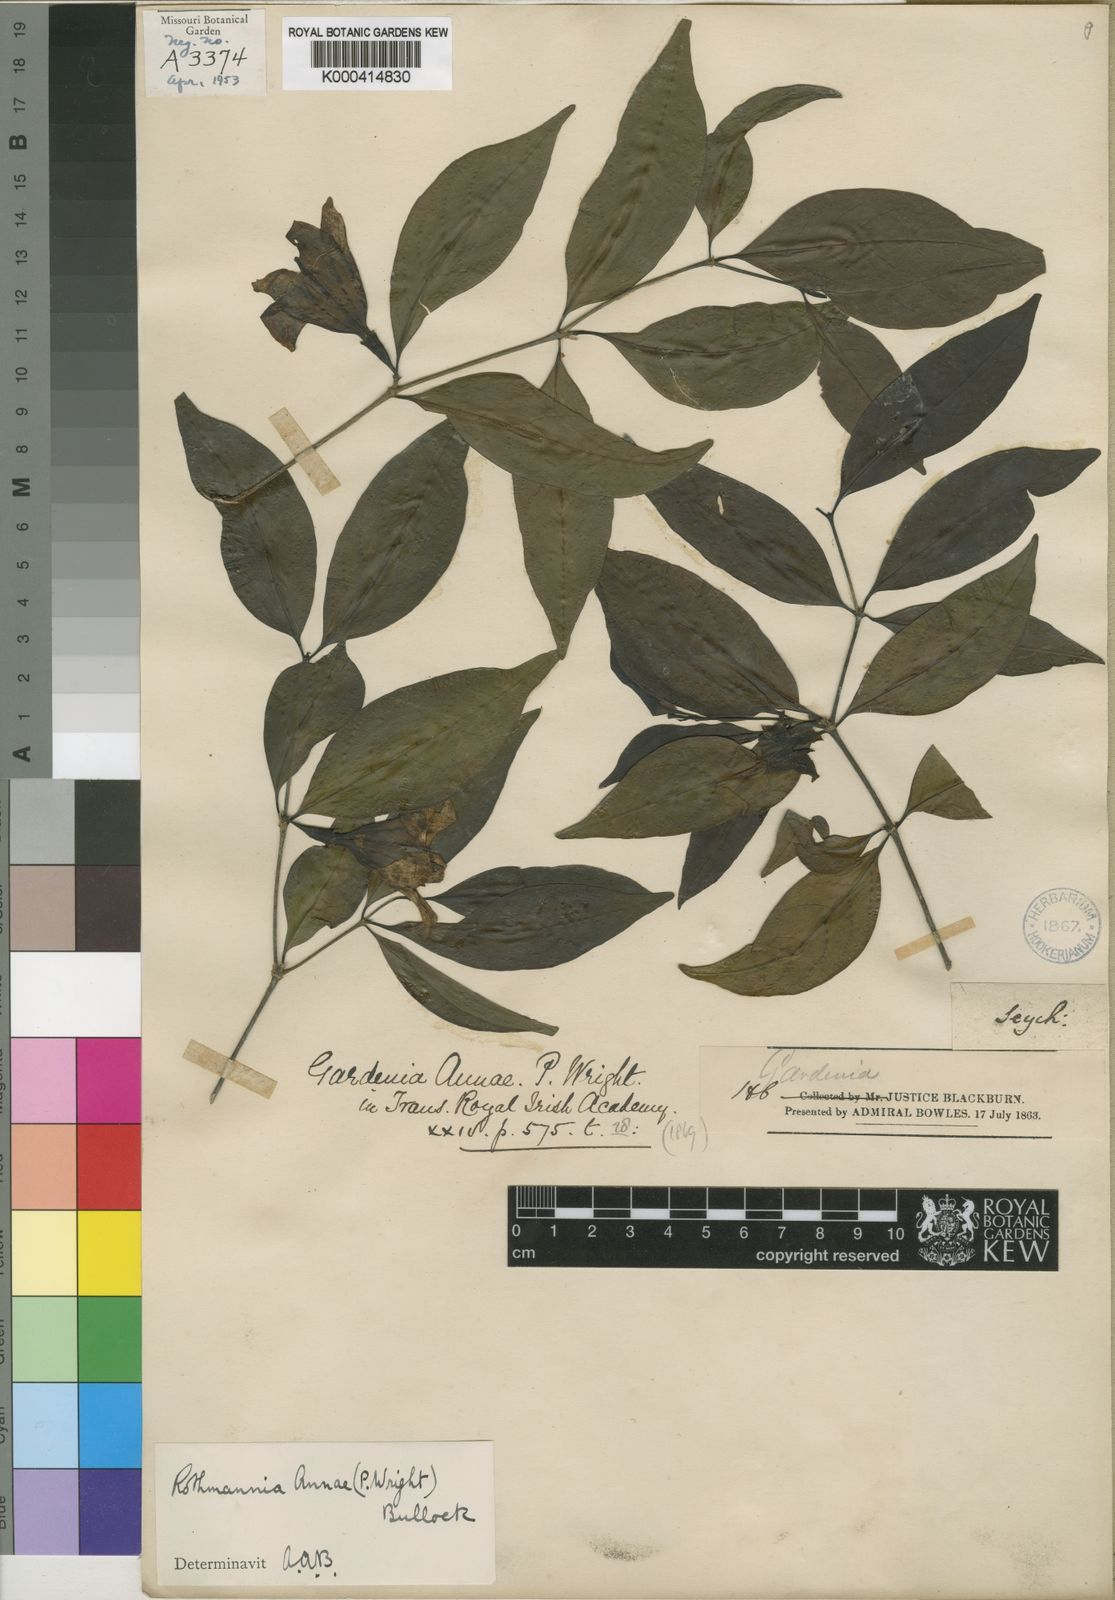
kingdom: Plantae
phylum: Tracheophyta
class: Magnoliopsida
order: Gentianales
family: Rubiaceae
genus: Rothmannia
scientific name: Rothmannia annae
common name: Wright's gardenia
